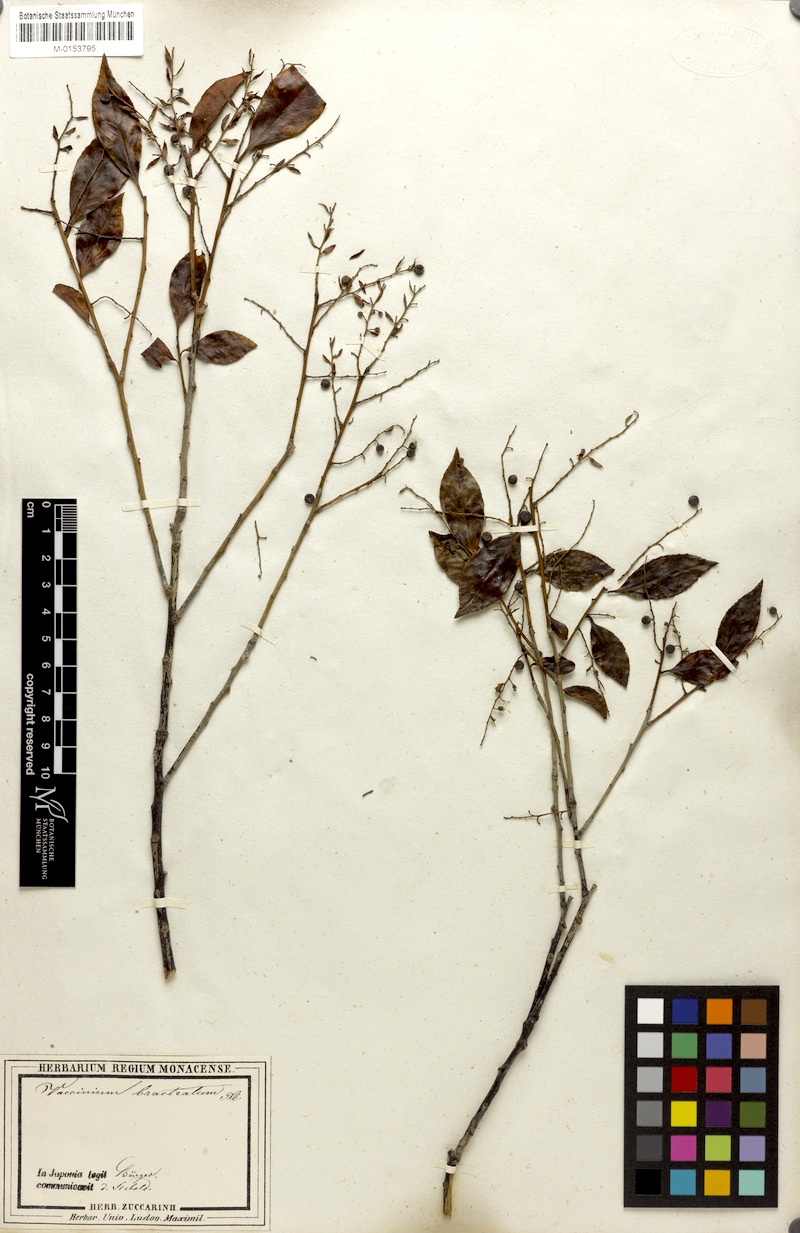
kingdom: Plantae
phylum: Tracheophyta
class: Magnoliopsida
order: Ericales
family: Ericaceae
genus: Vaccinium
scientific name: Vaccinium bracteatum
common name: Sea bilberry
